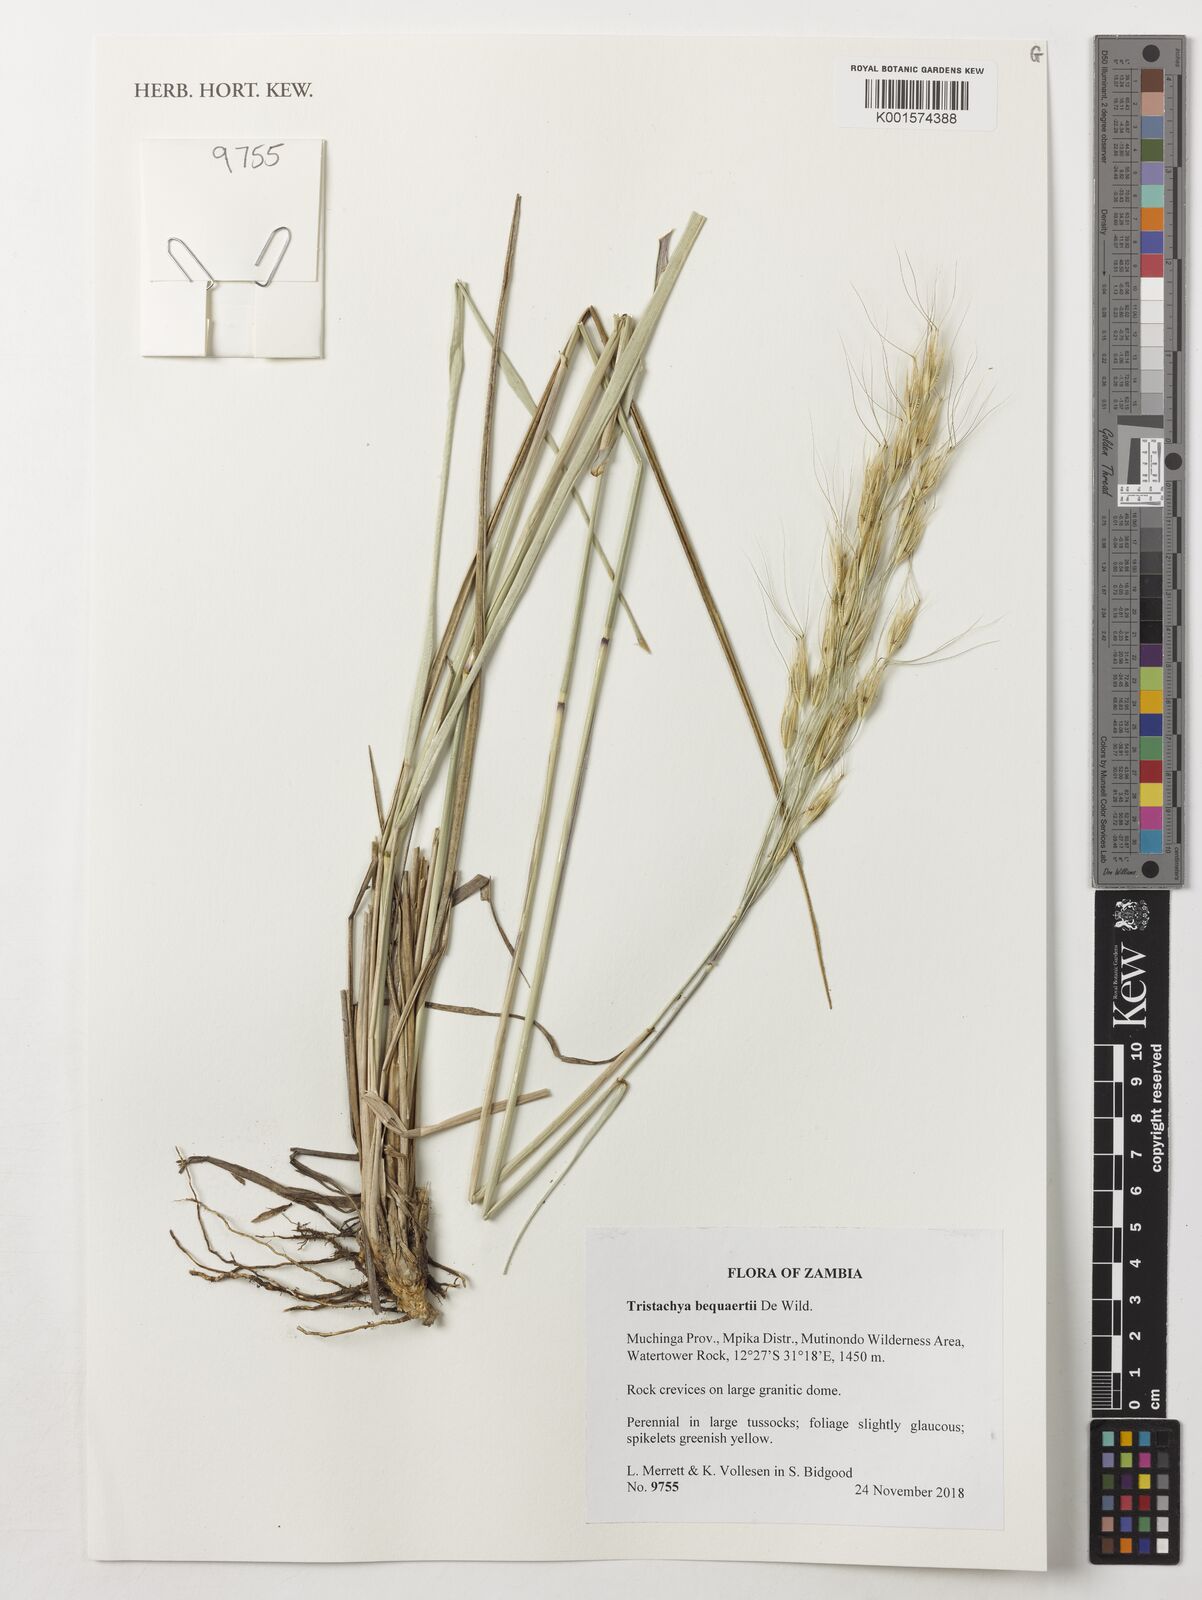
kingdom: Plantae
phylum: Tracheophyta
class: Liliopsida
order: Poales
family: Poaceae
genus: Tristachya
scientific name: Tristachya bequaertii
